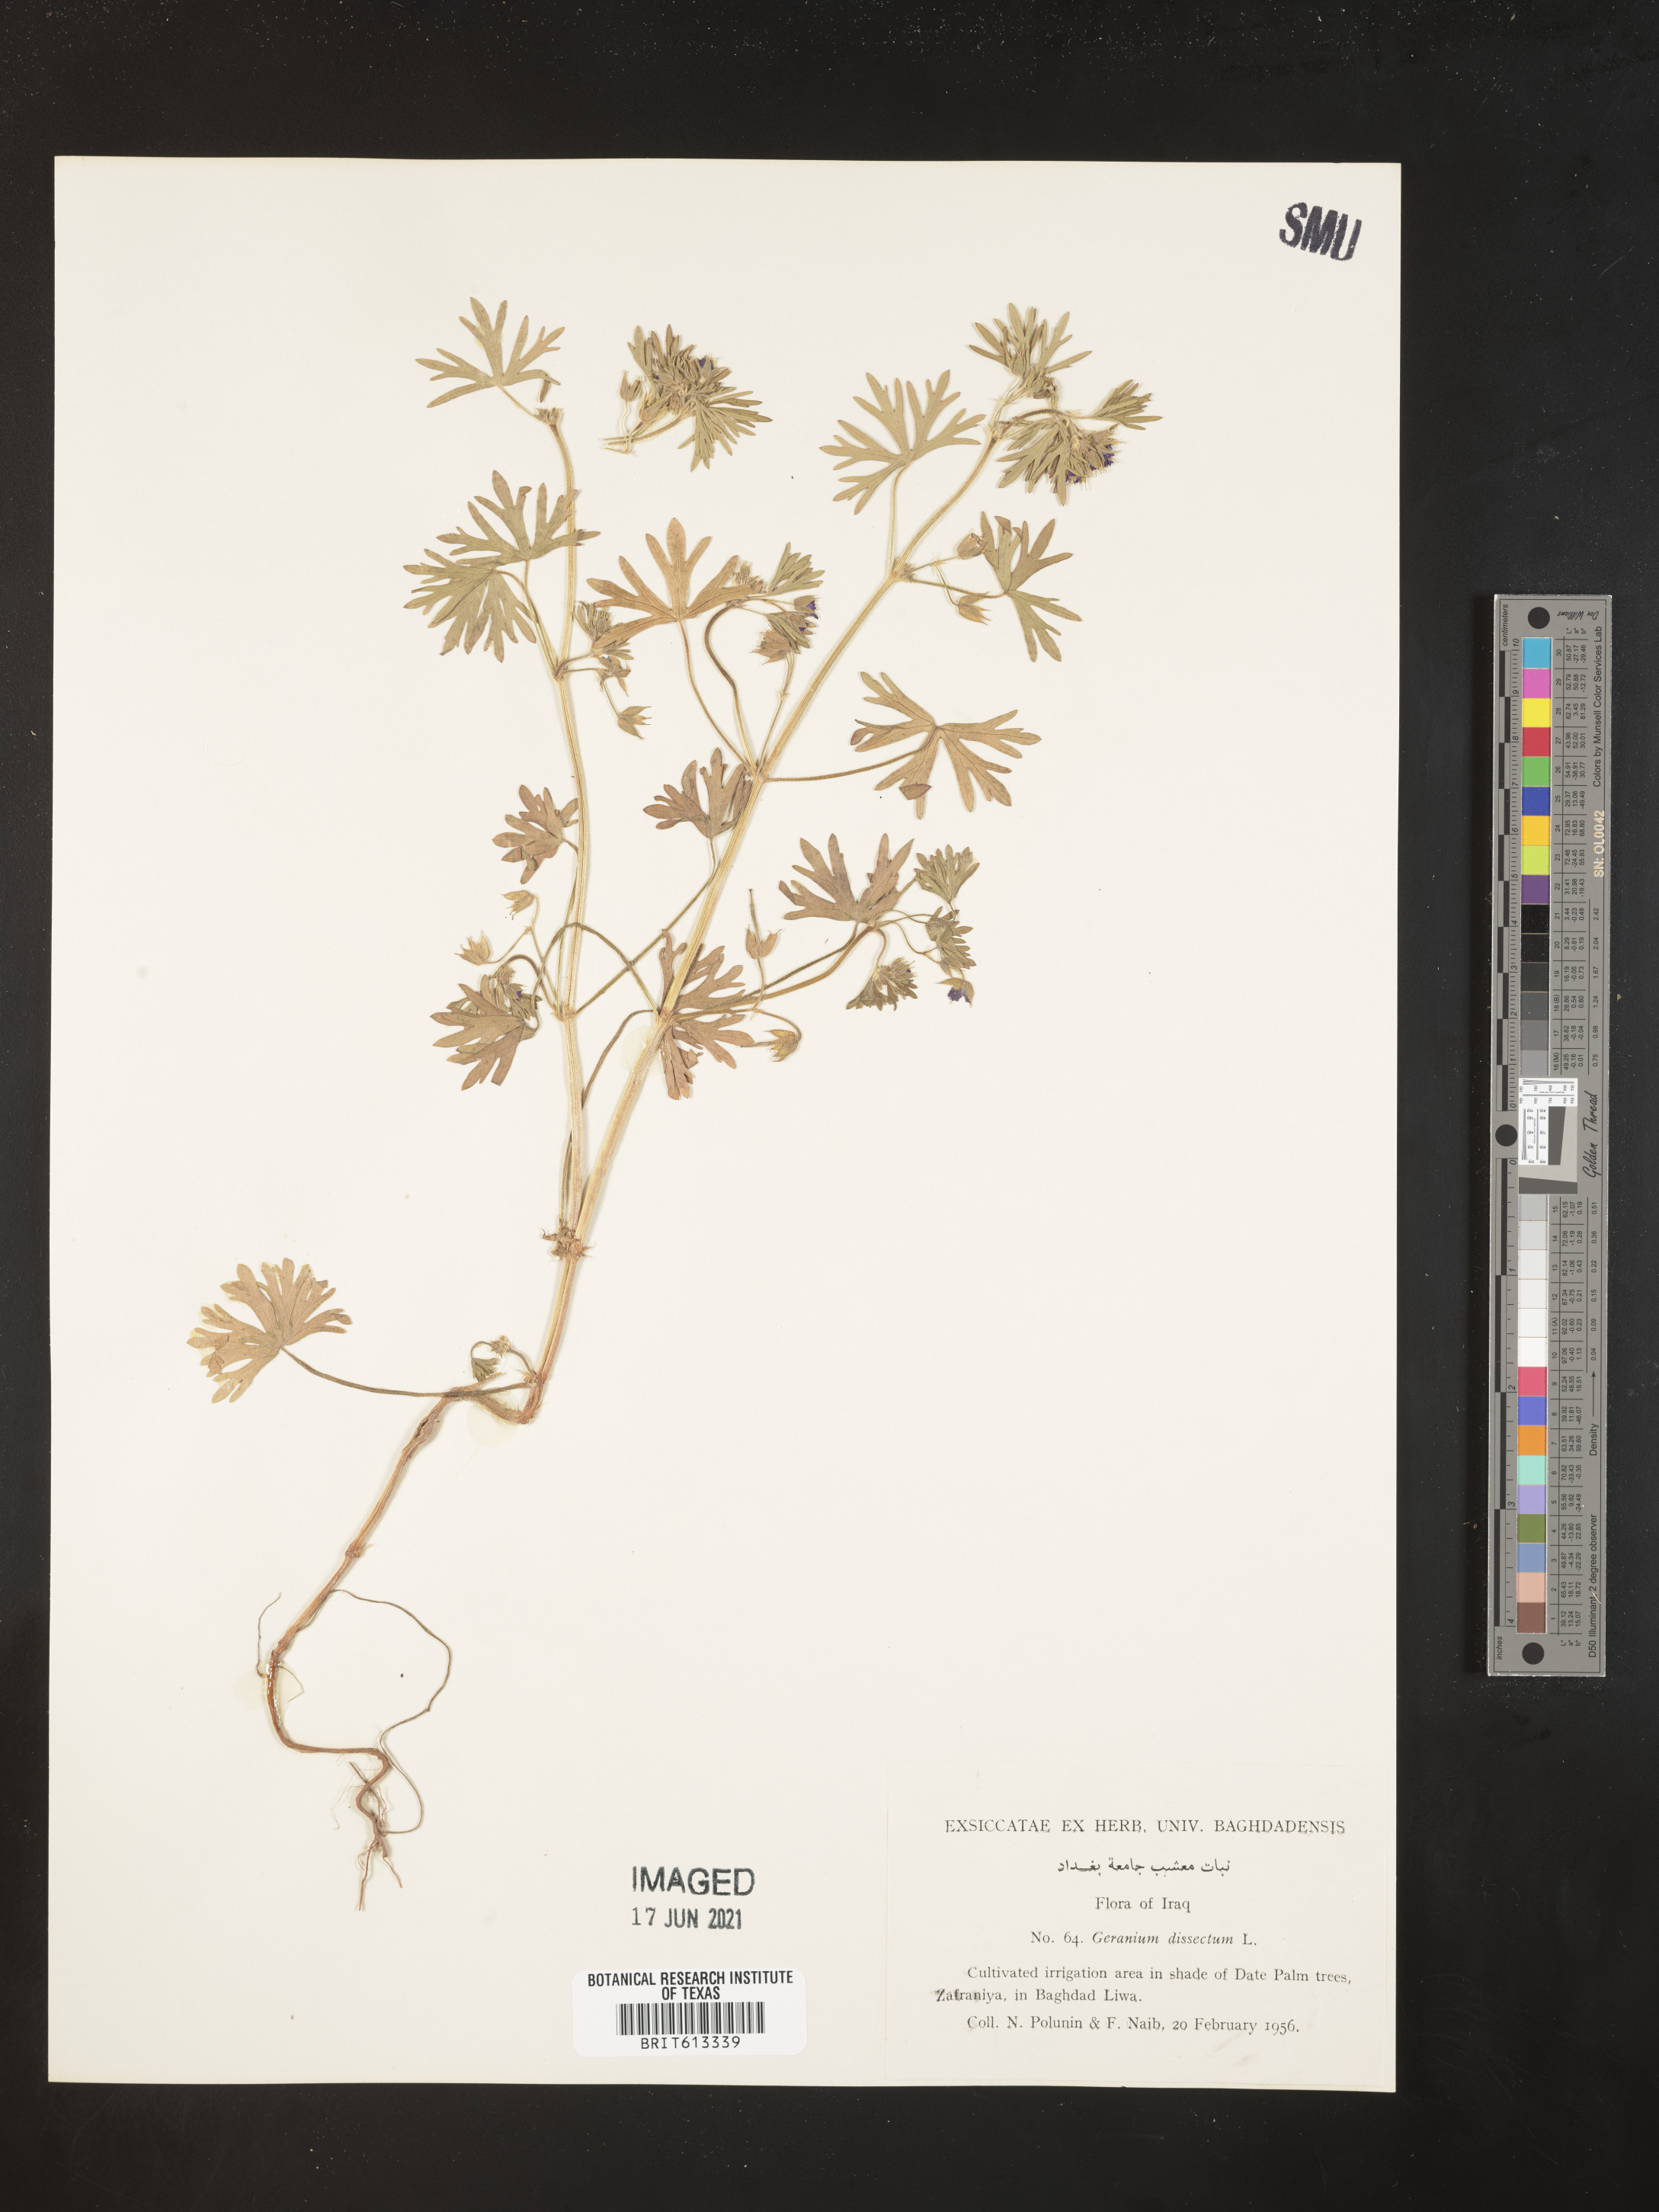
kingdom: Plantae
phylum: Tracheophyta
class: Magnoliopsida
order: Geraniales
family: Geraniaceae
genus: Geranium
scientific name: Geranium dissectum
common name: Cut-leaved crane's-bill
